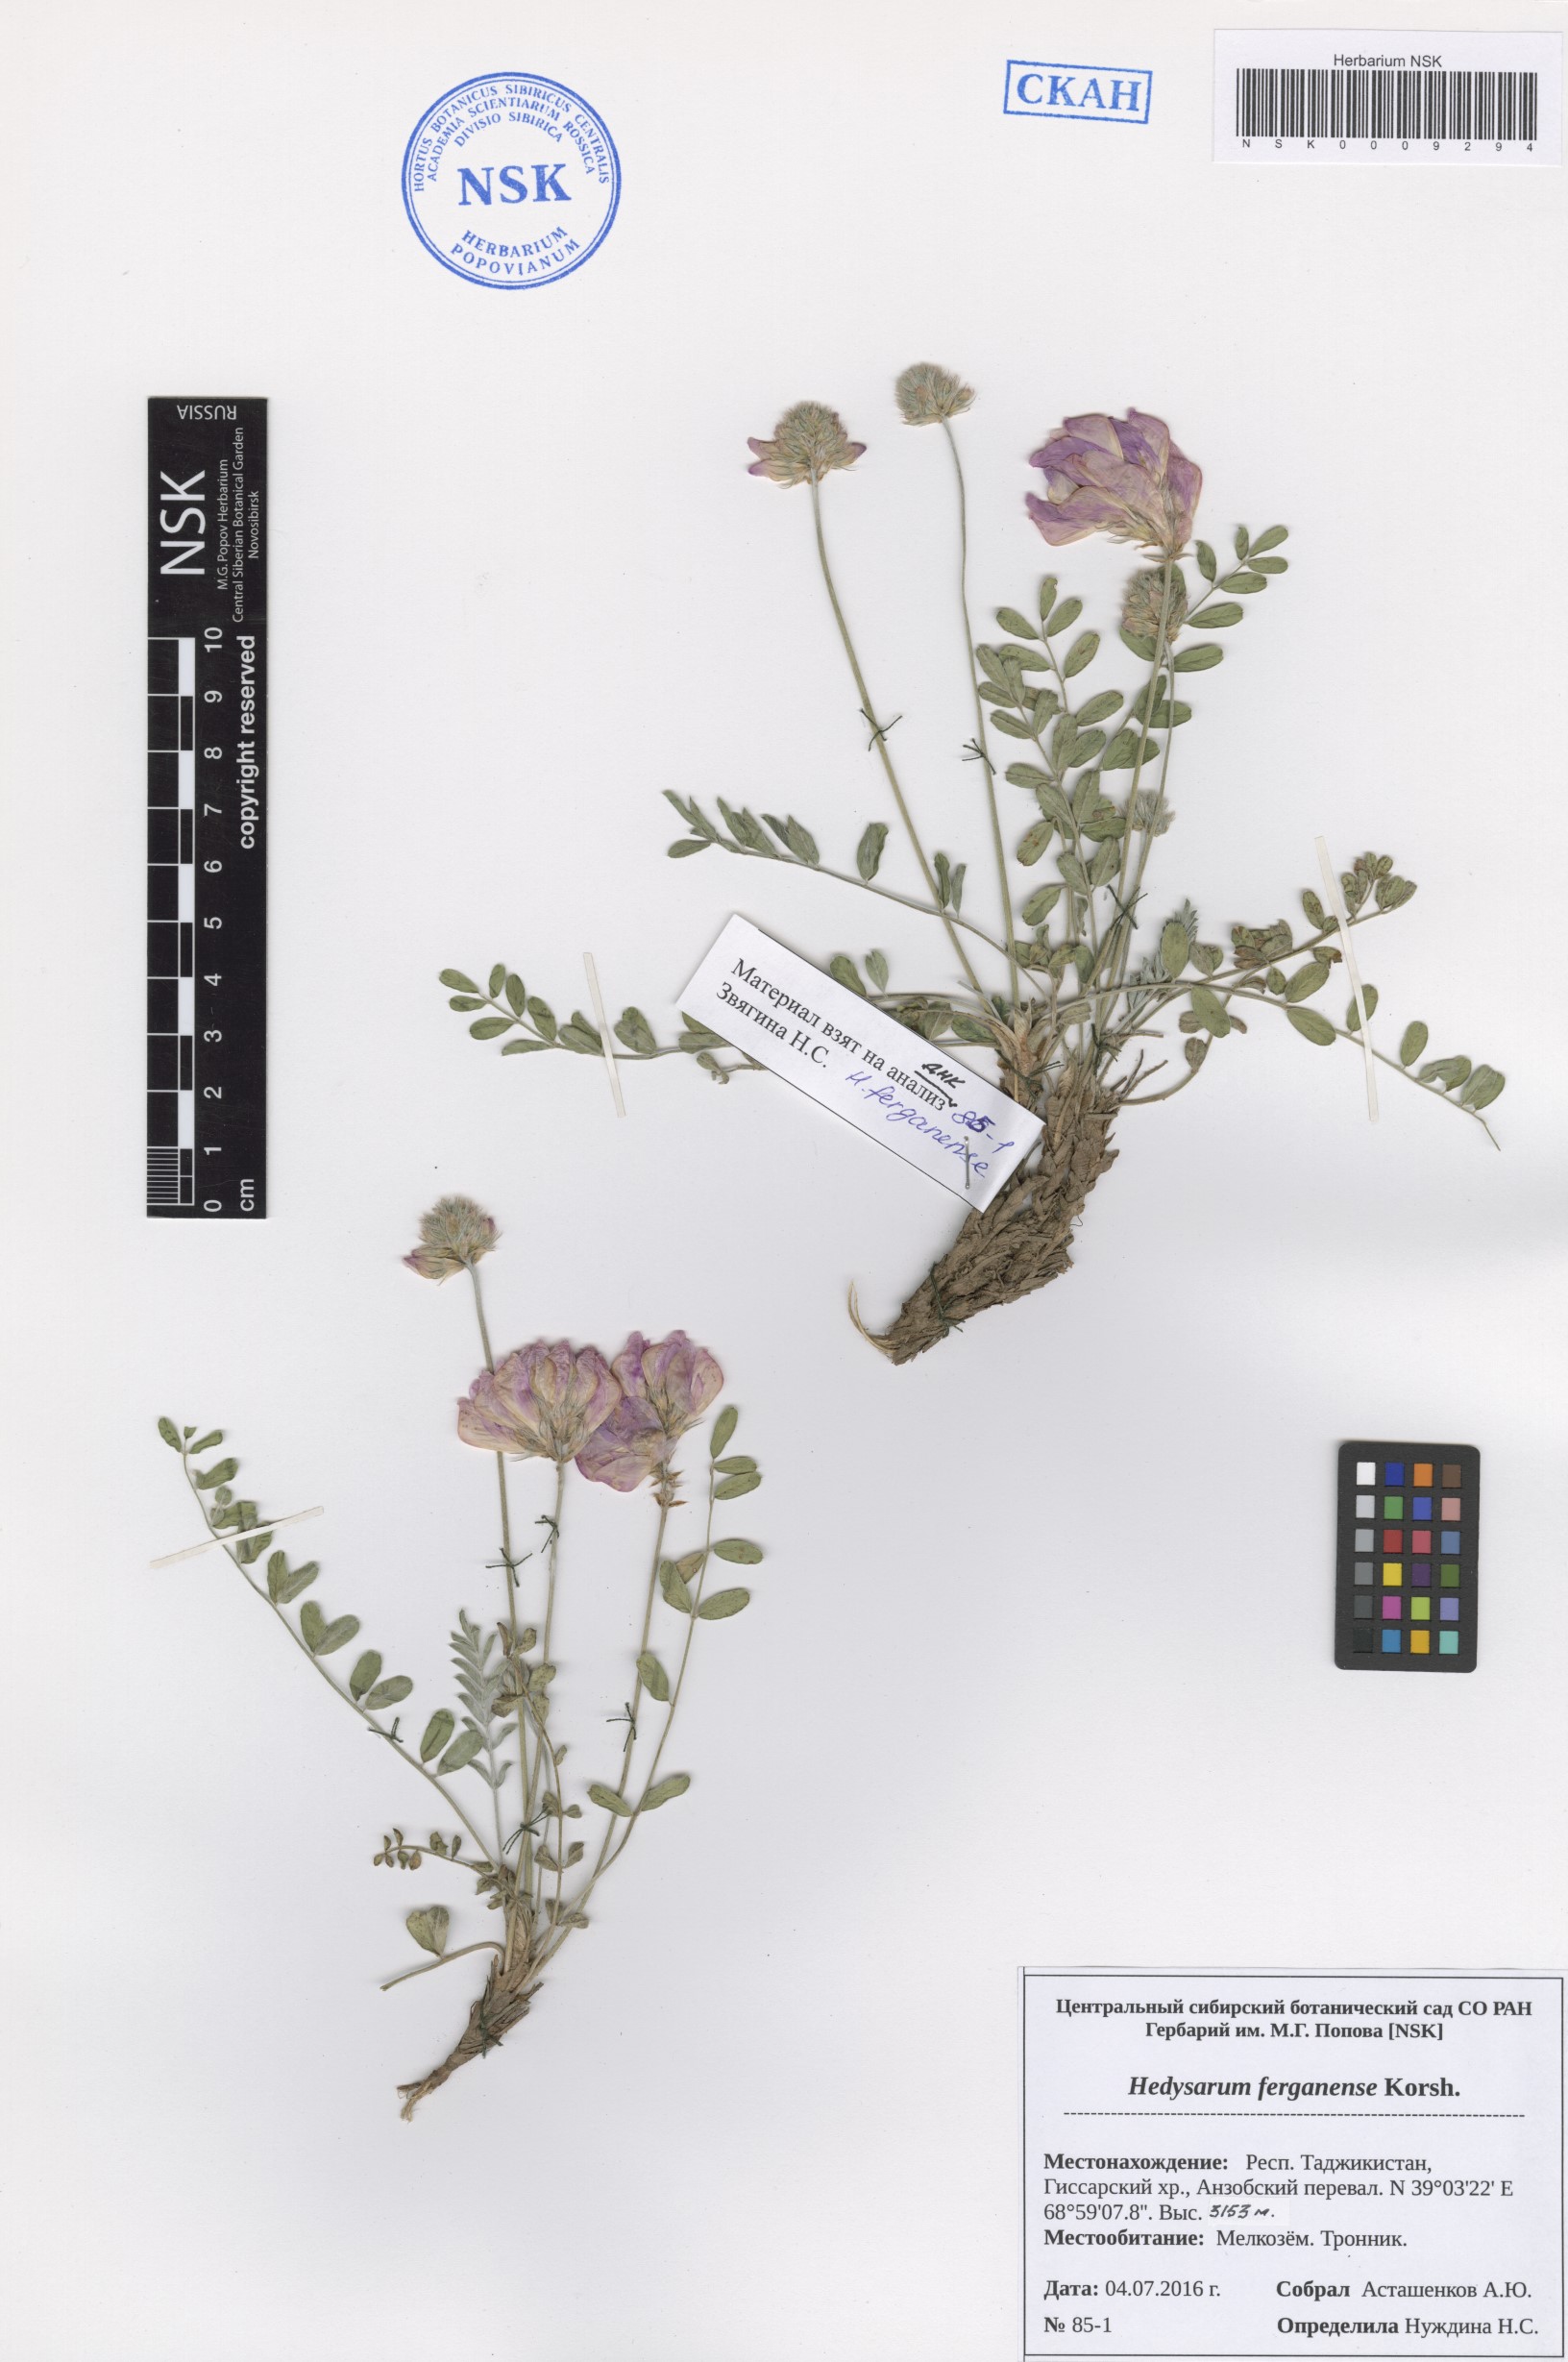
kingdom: Plantae
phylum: Tracheophyta
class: Magnoliopsida
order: Fabales
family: Fabaceae
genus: Hedysarum
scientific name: Hedysarum ferganense
